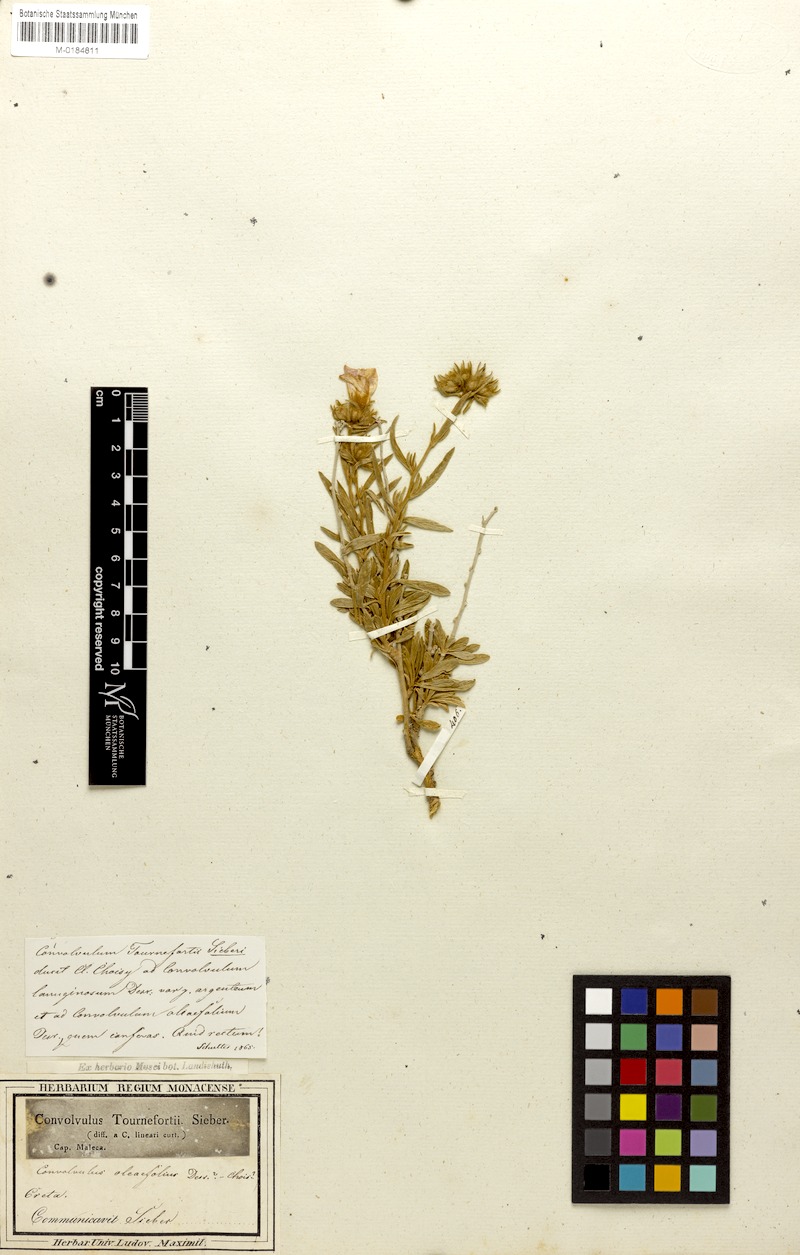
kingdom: Plantae
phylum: Tracheophyta
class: Magnoliopsida
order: Solanales
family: Convolvulaceae
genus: Convolvulus
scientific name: Convolvulus oleifolius
